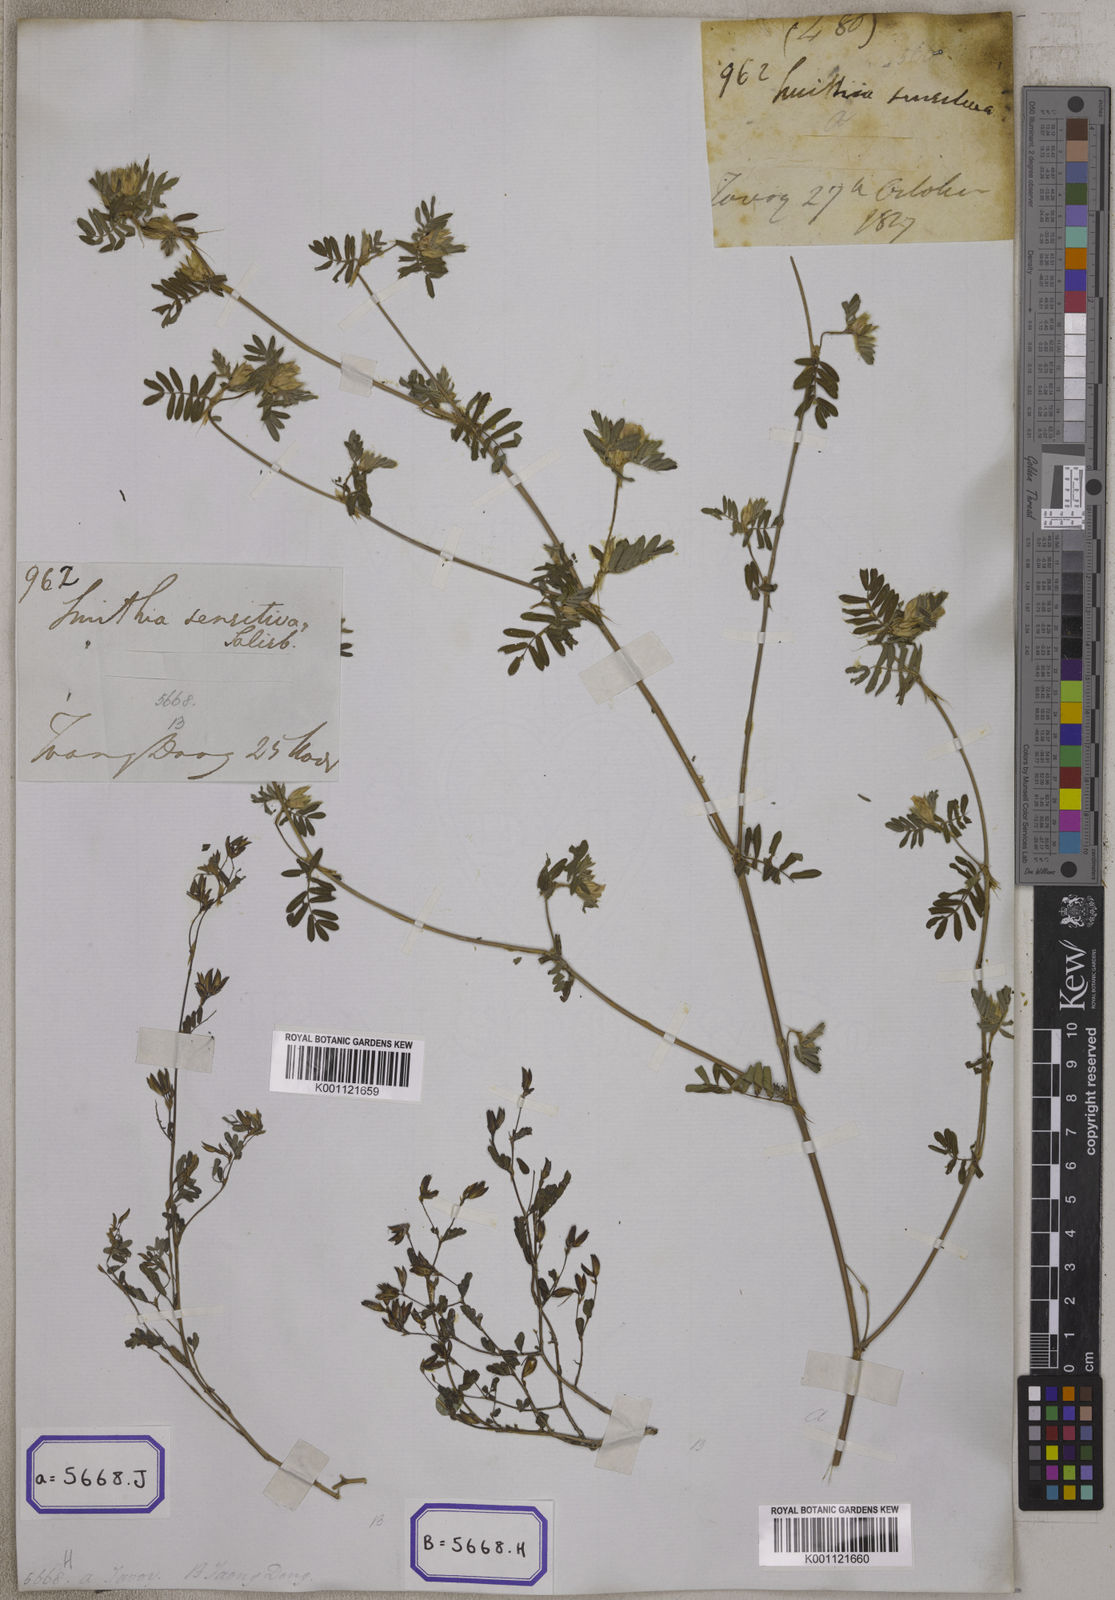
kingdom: Plantae
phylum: Tracheophyta
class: Magnoliopsida
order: Fabales
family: Fabaceae
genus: Smithia
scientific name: Smithia sensitiva
